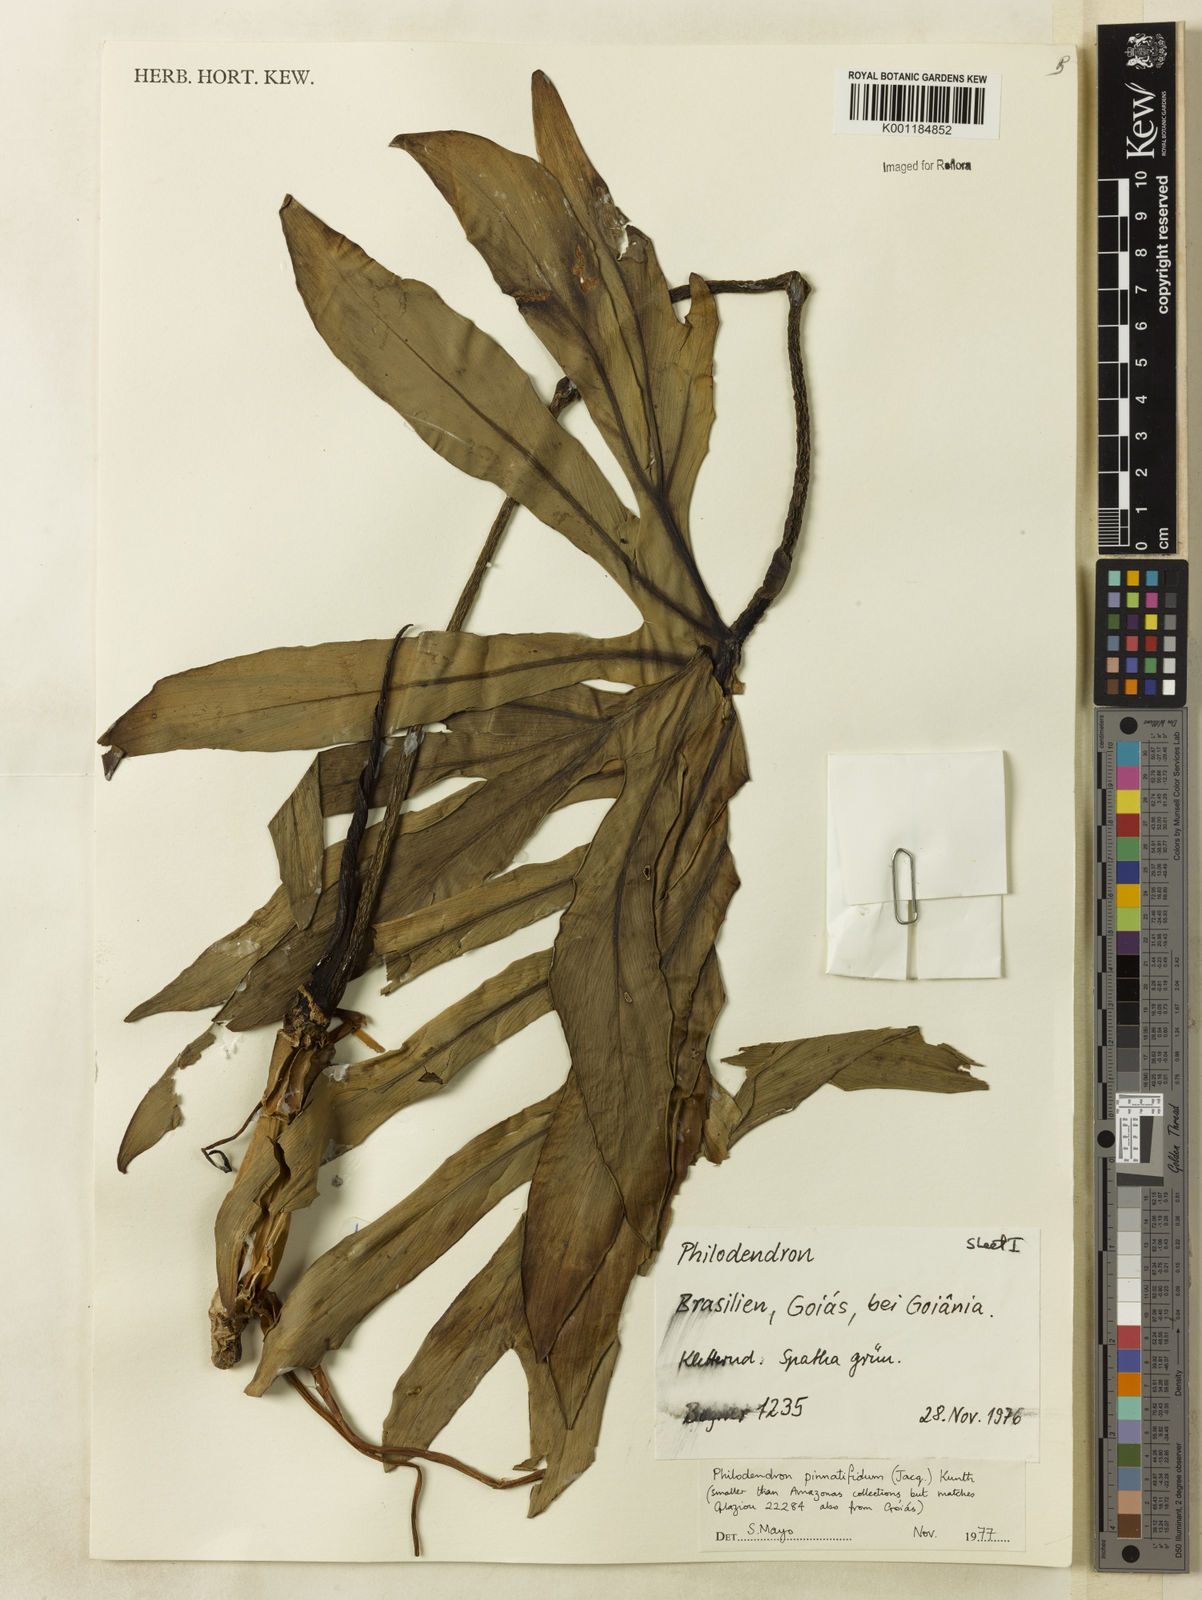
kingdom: Plantae
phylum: Tracheophyta
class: Liliopsida
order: Alismatales
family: Araceae
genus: Philodendron
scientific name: Philodendron
